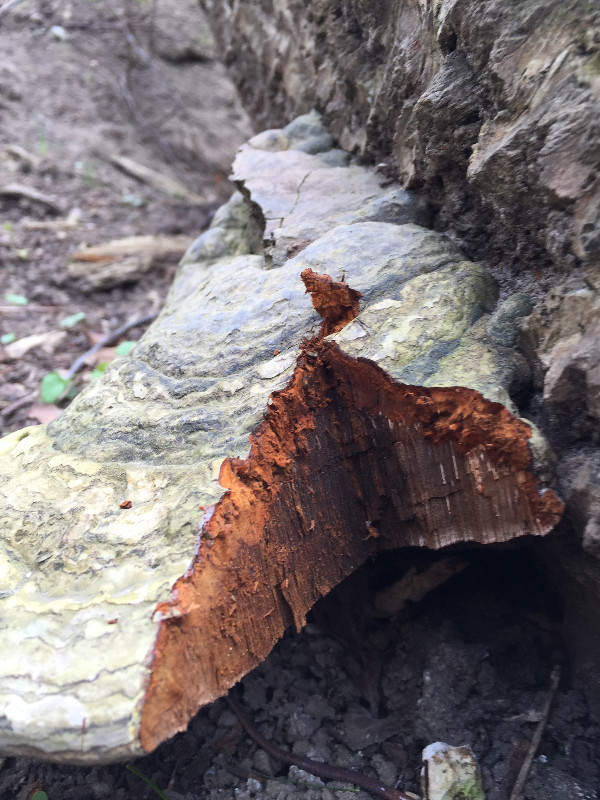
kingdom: Fungi
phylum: Basidiomycota
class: Agaricomycetes
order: Polyporales
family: Polyporaceae
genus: Fomes
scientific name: Fomes fomentarius
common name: tøndersvamp
